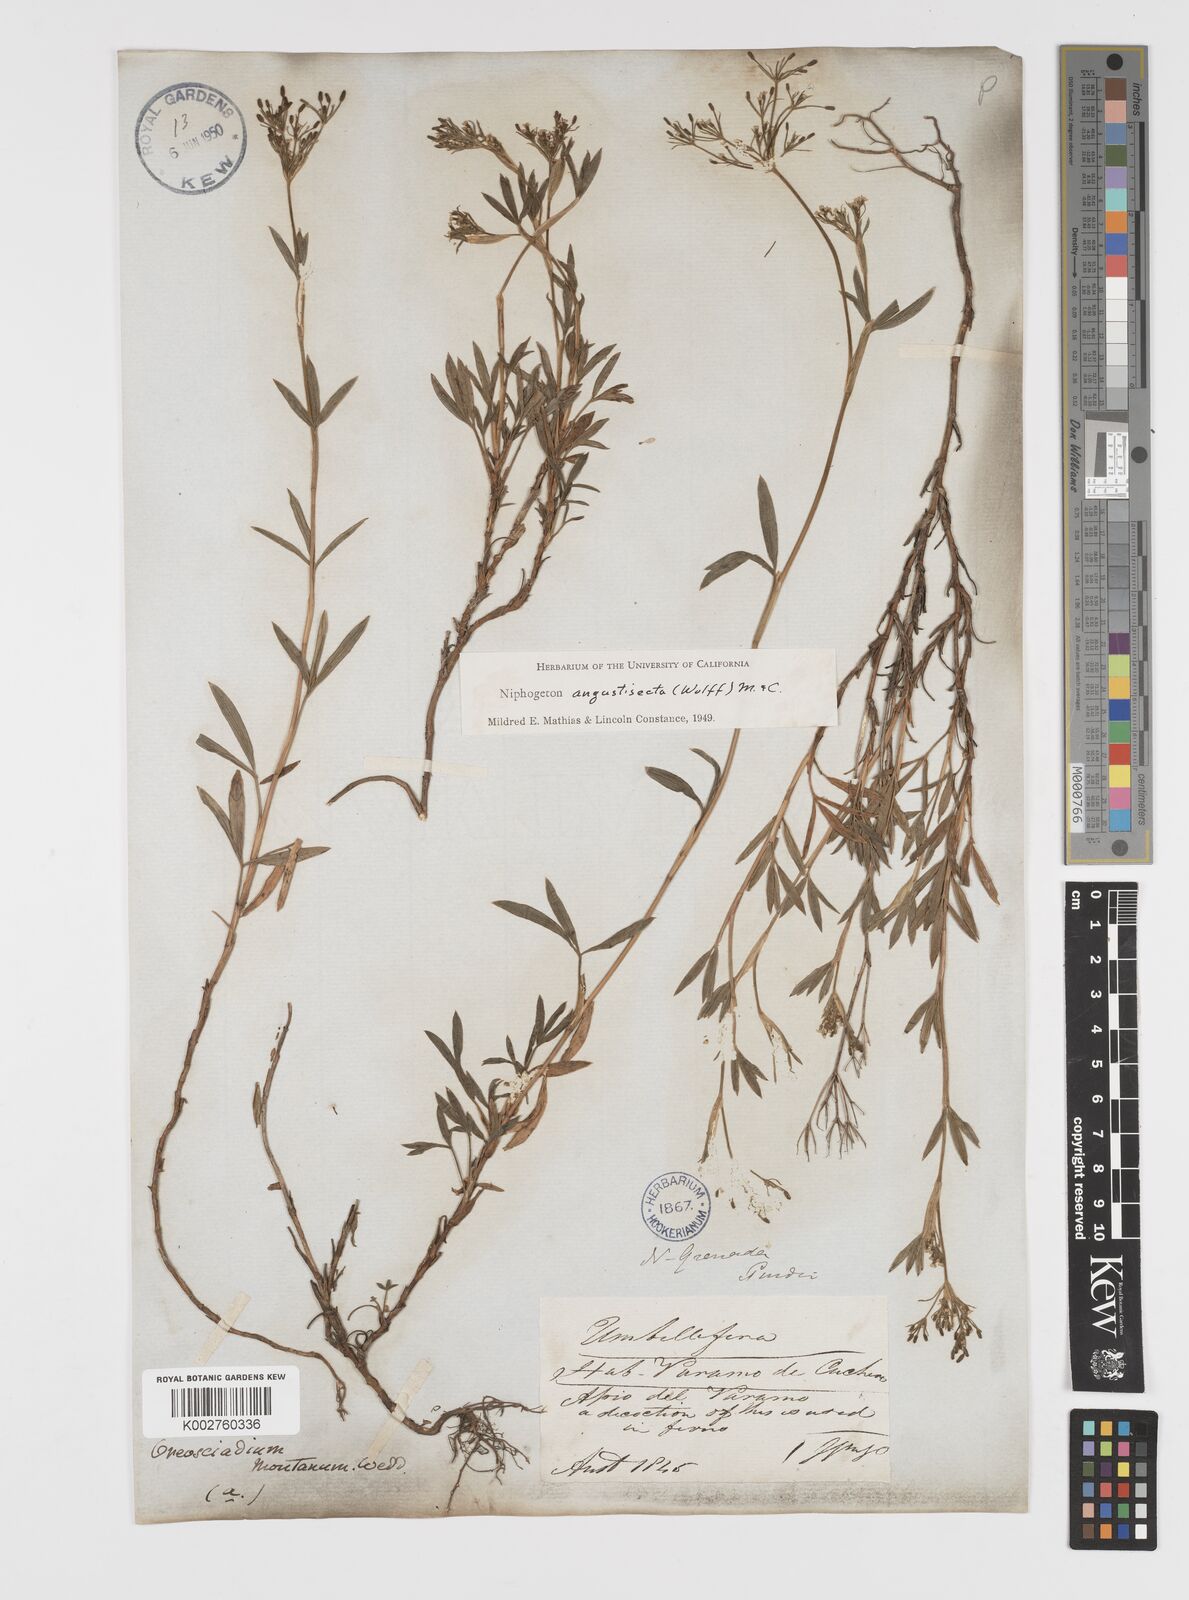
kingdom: Plantae
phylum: Tracheophyta
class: Magnoliopsida
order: Apiales
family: Apiaceae
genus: Niphogeton
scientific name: Niphogeton chirripoi
